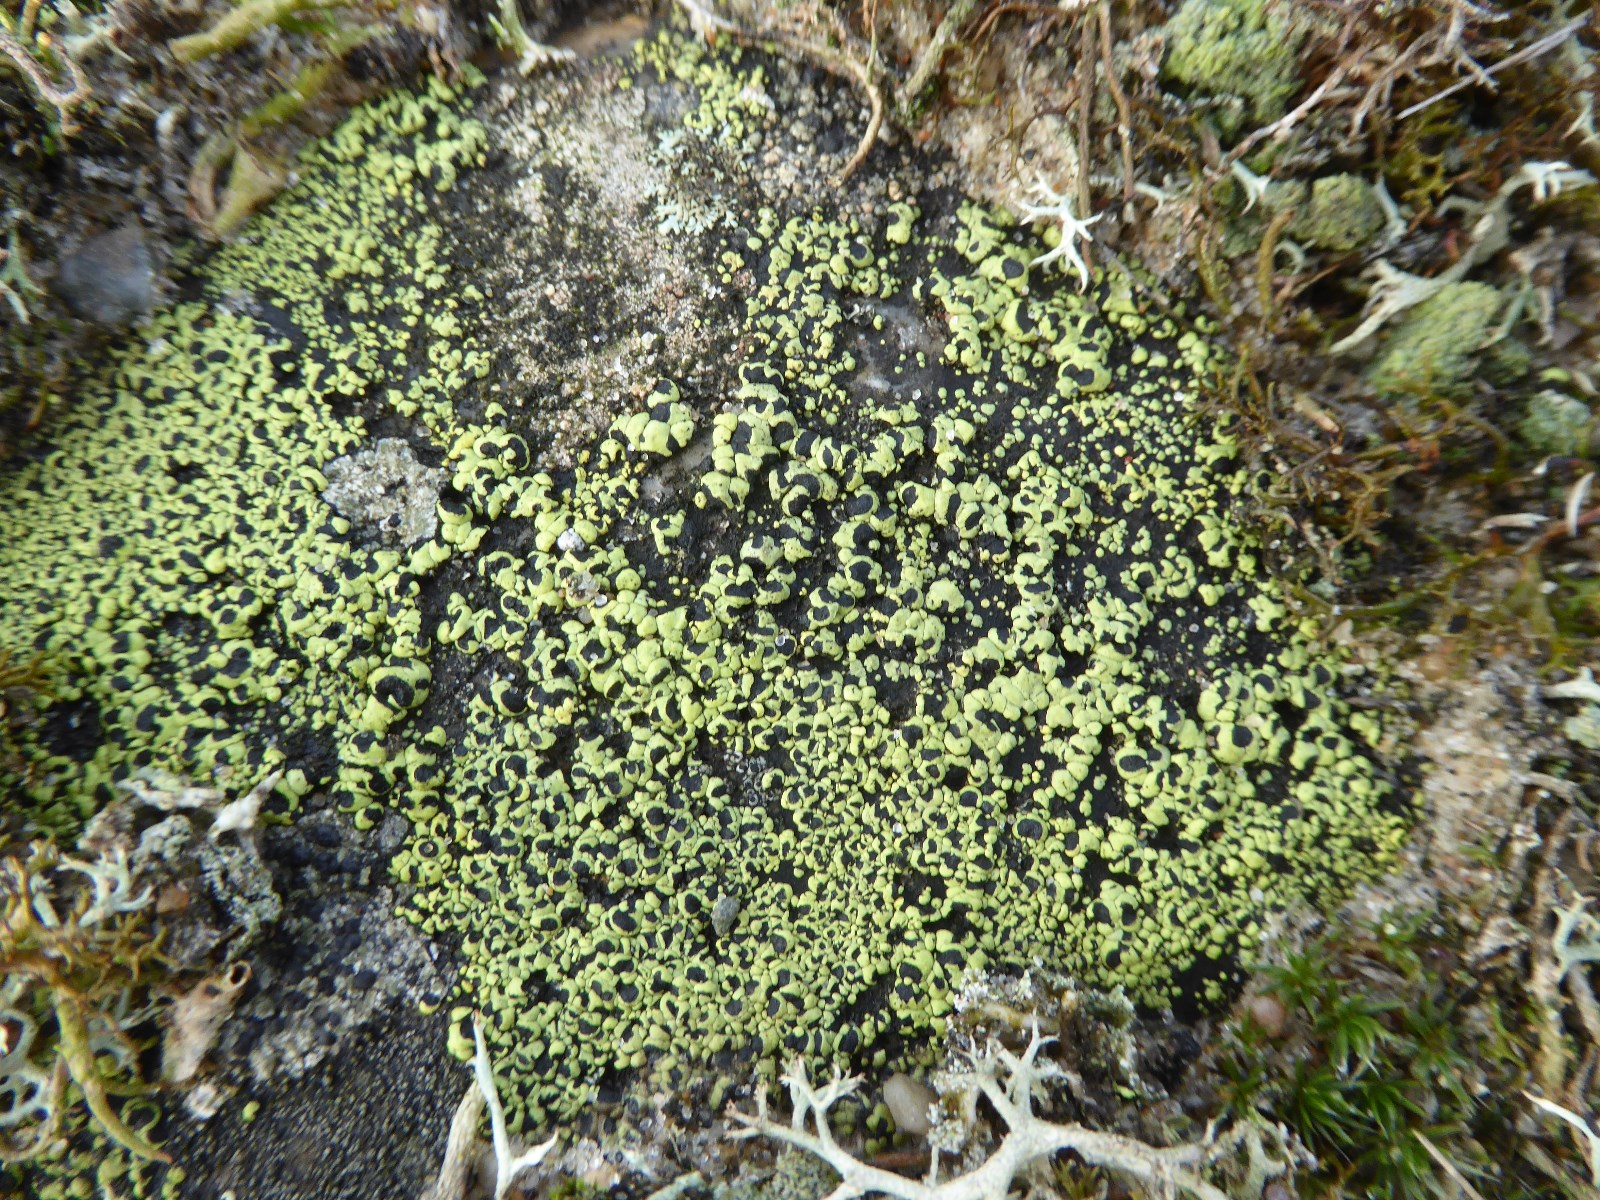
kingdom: Fungi
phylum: Ascomycota
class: Lecanoromycetes
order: Rhizocarpales
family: Rhizocarpaceae
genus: Rhizocarpon
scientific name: Rhizocarpon lecanorinum
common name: krave-landkortlav
